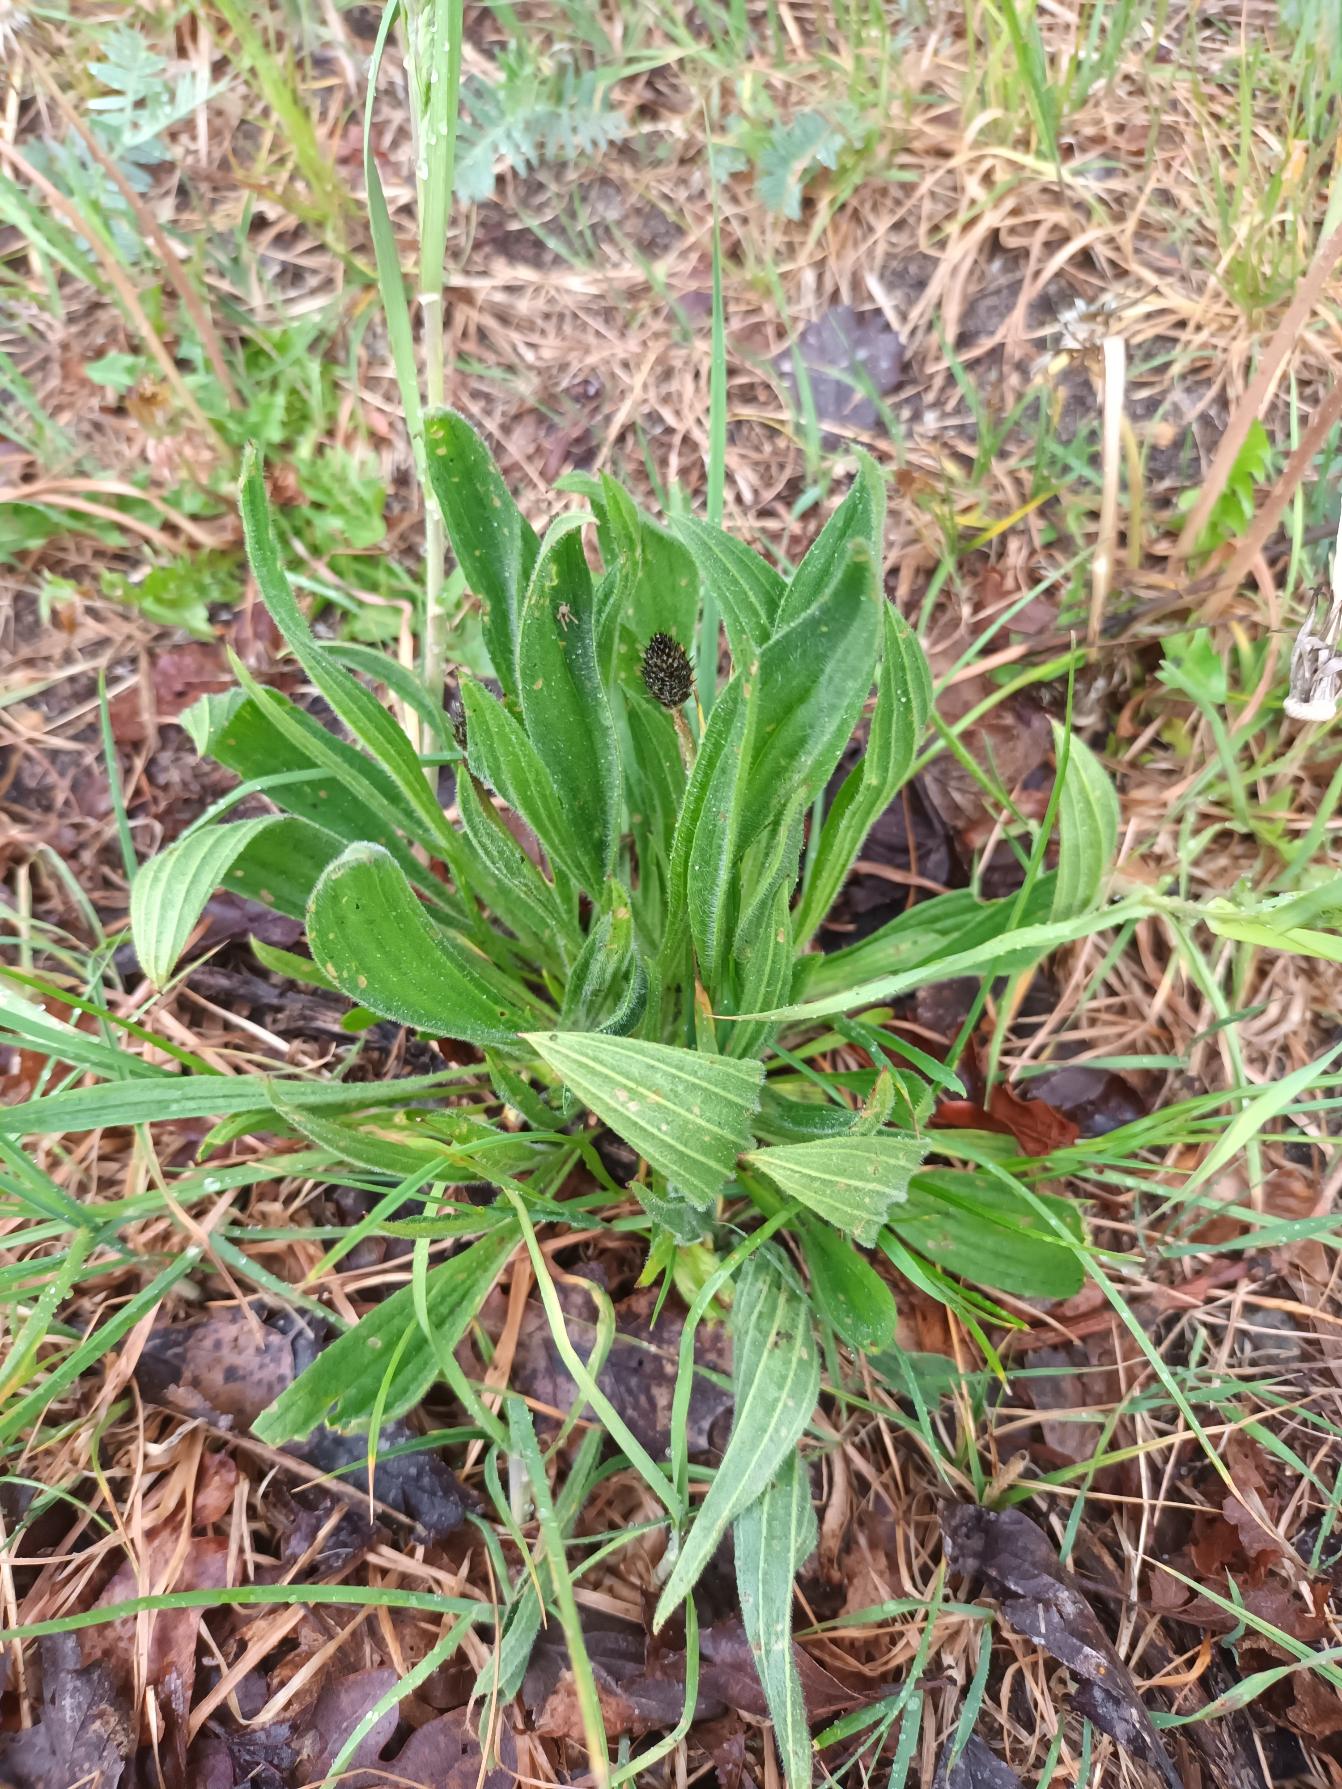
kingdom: Plantae
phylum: Tracheophyta
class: Magnoliopsida
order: Lamiales
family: Plantaginaceae
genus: Plantago
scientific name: Plantago lanceolata
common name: Lancet-vejbred
